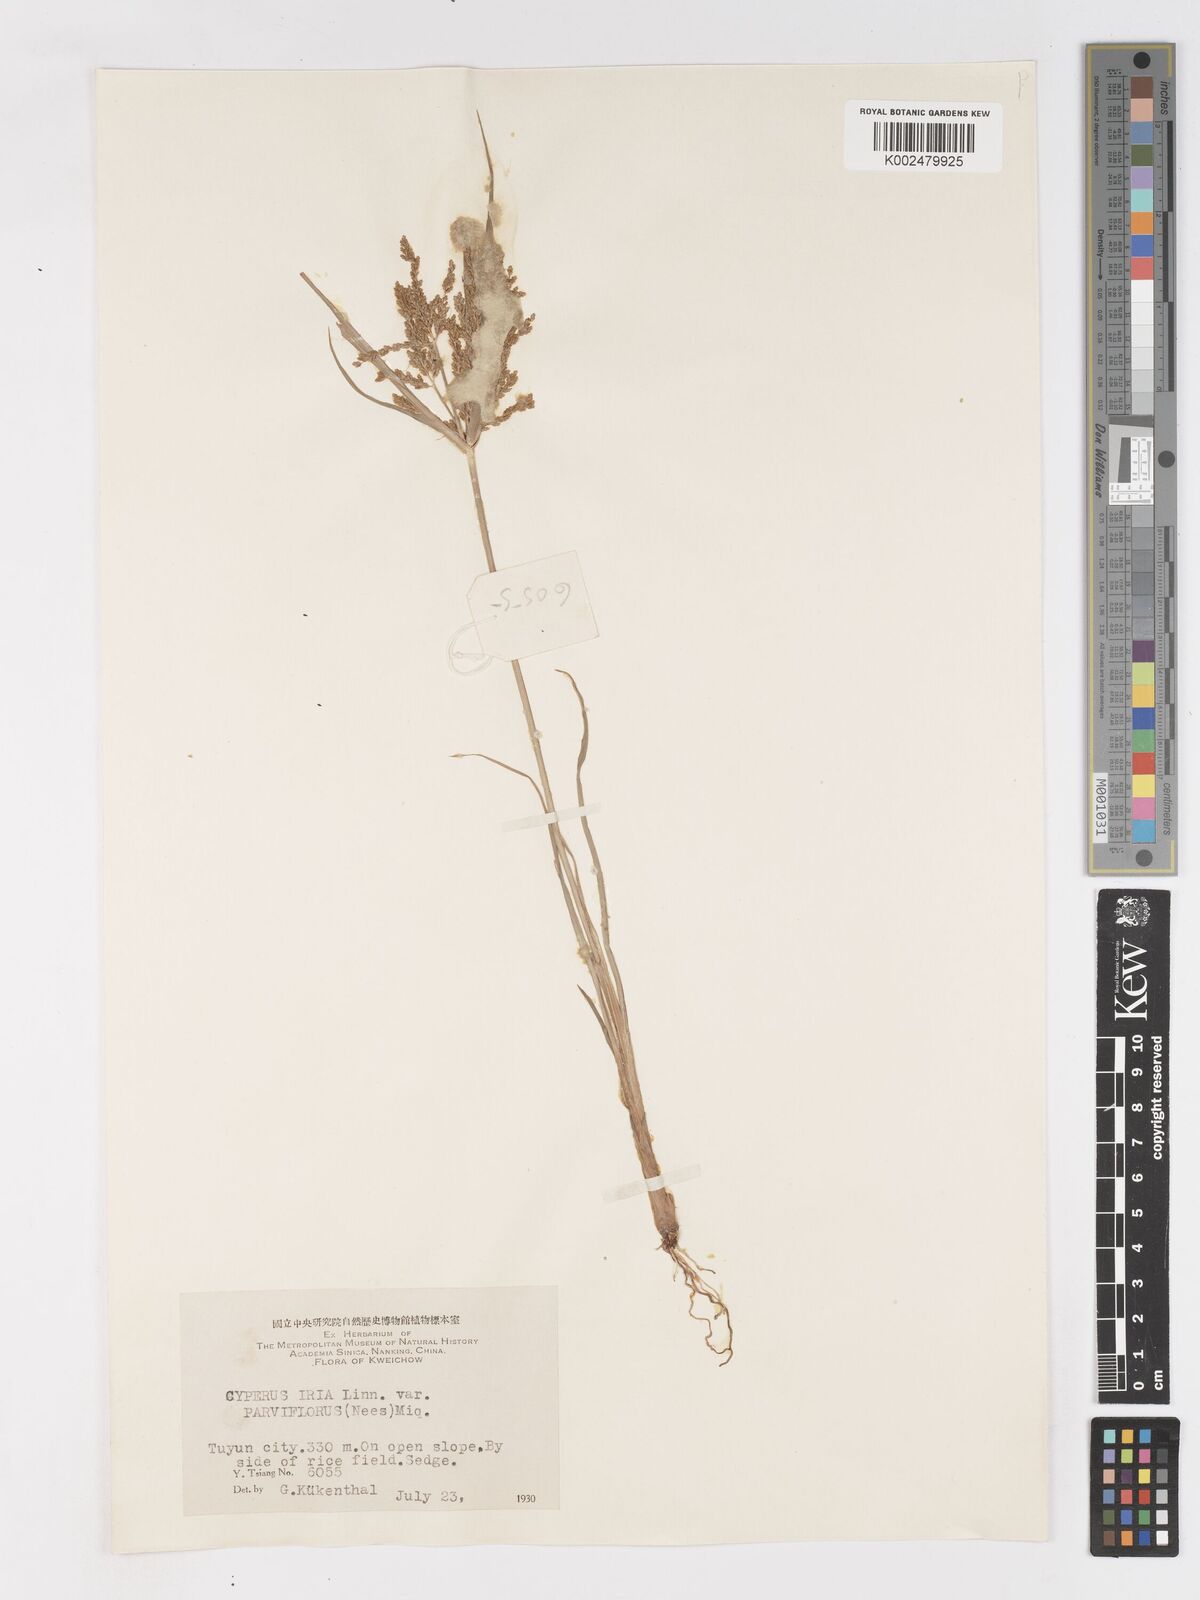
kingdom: Plantae
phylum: Tracheophyta
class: Liliopsida
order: Poales
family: Cyperaceae
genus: Cyperus
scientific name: Cyperus iria
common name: Ricefield flatsedge
